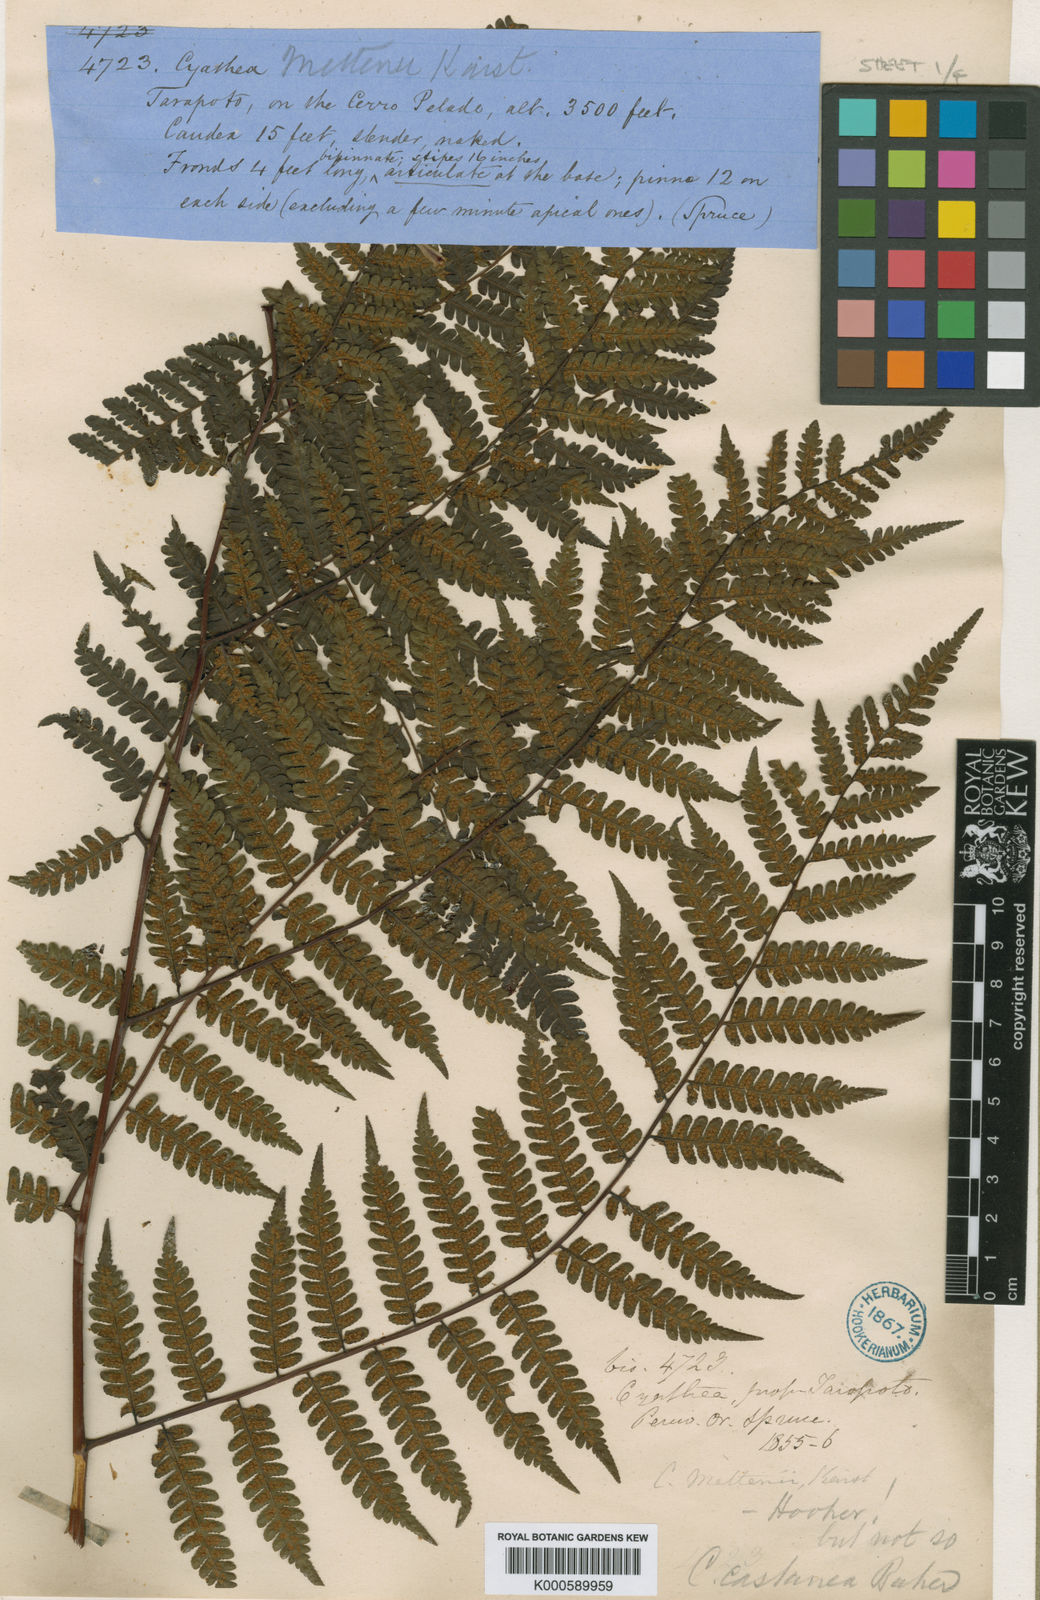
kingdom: Plantae
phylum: Tracheophyta
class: Polypodiopsida
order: Cyatheales
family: Cyatheaceae
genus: Cyathea
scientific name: Cyathea lechleri
